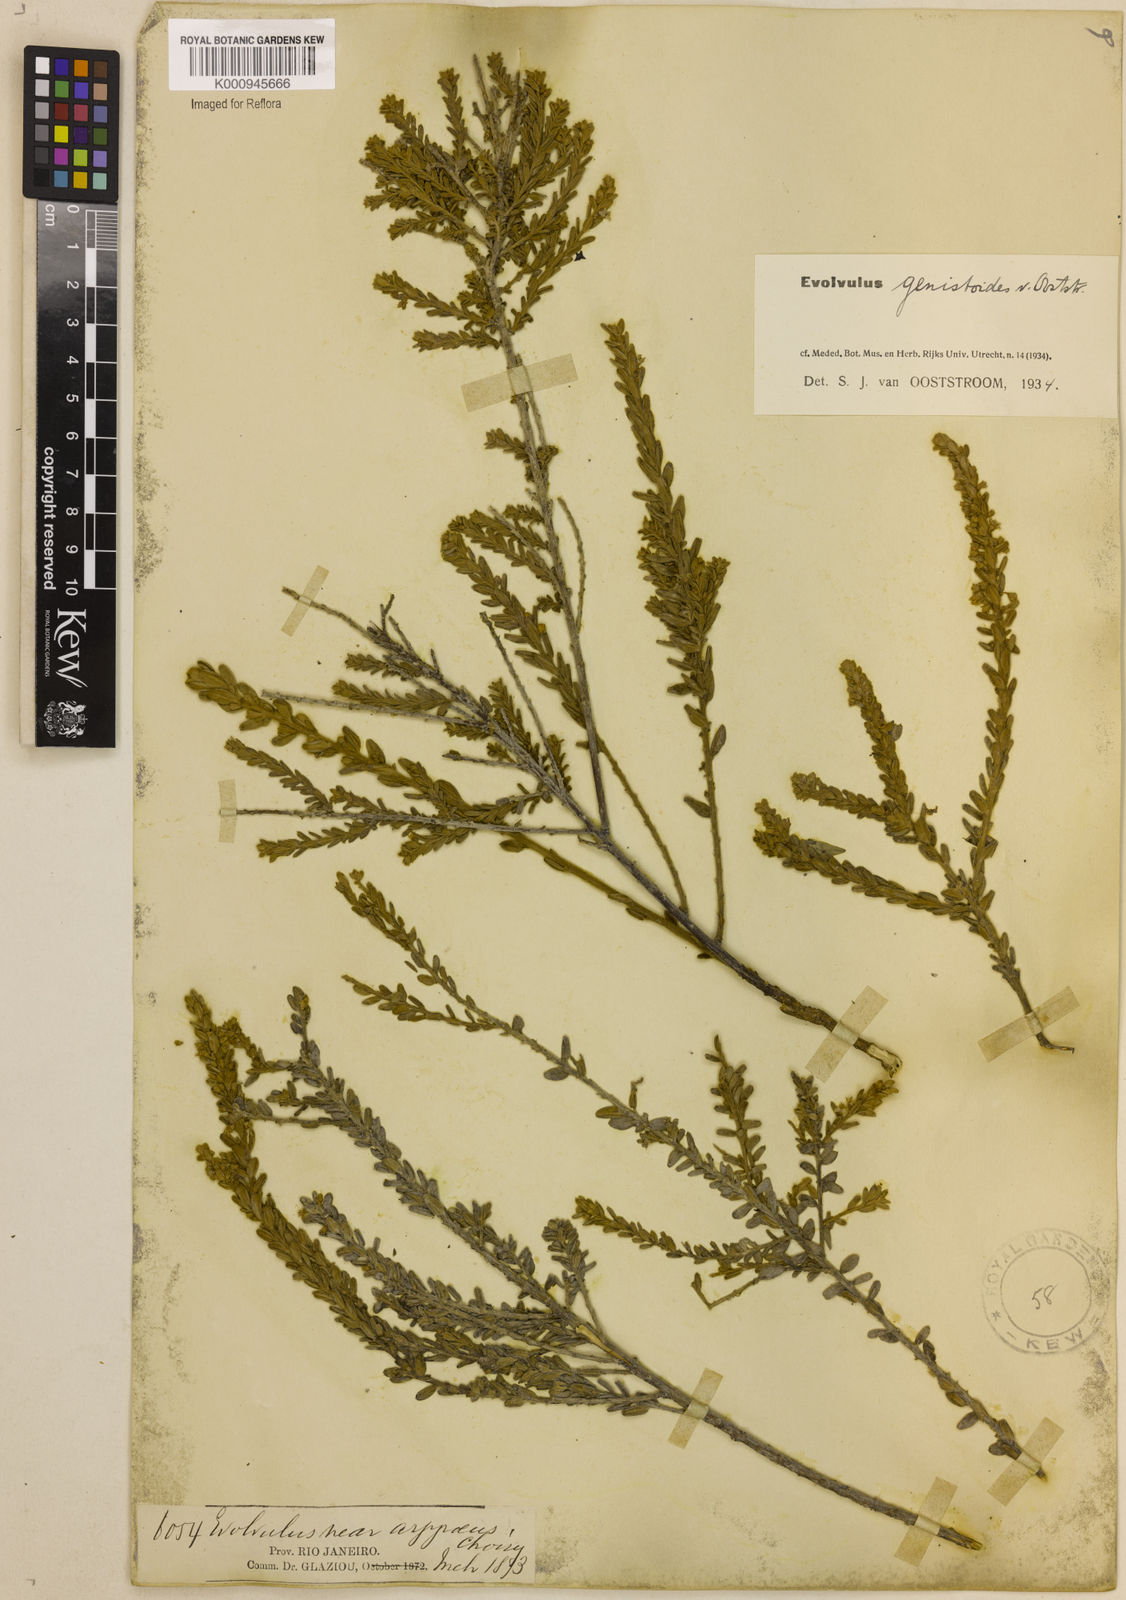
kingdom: Plantae
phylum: Tracheophyta
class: Magnoliopsida
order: Solanales
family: Convolvulaceae
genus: Evolvulus
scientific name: Evolvulus genistoides
